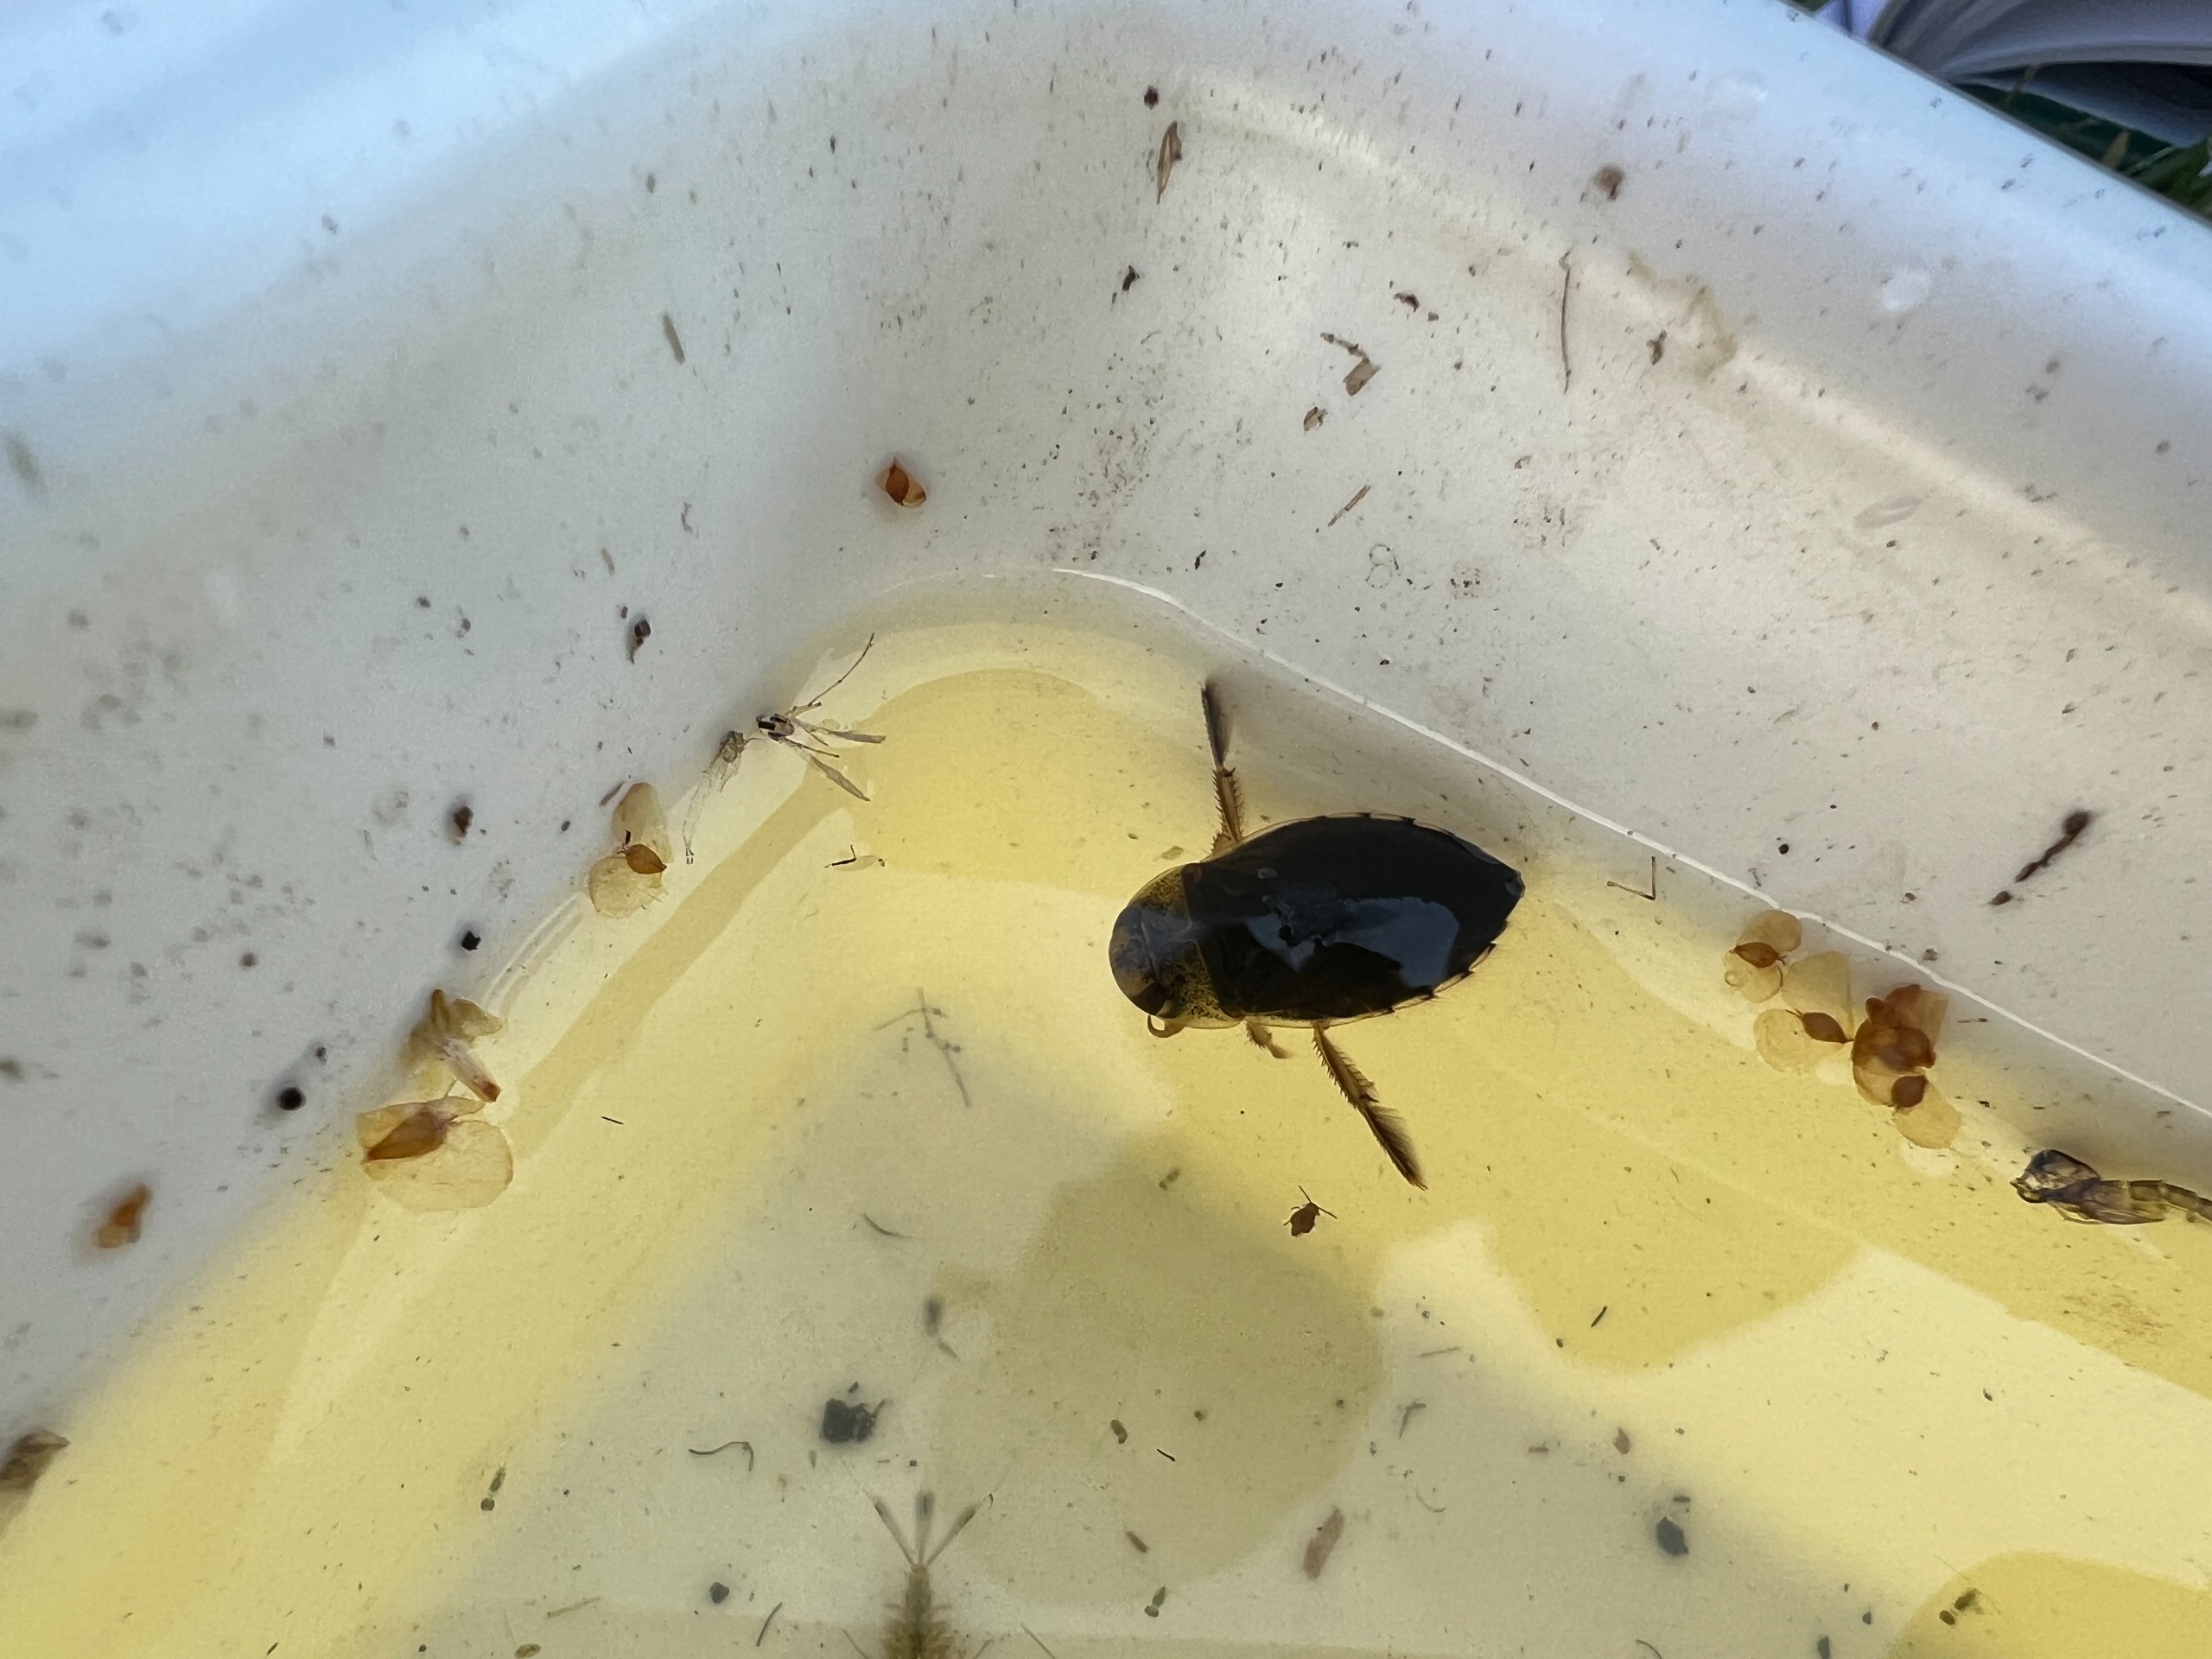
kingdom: Animalia
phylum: Arthropoda
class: Insecta
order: Hemiptera
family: Naucoridae
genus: Ilyocoris
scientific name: Ilyocoris cimicoides
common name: Vandrøver
